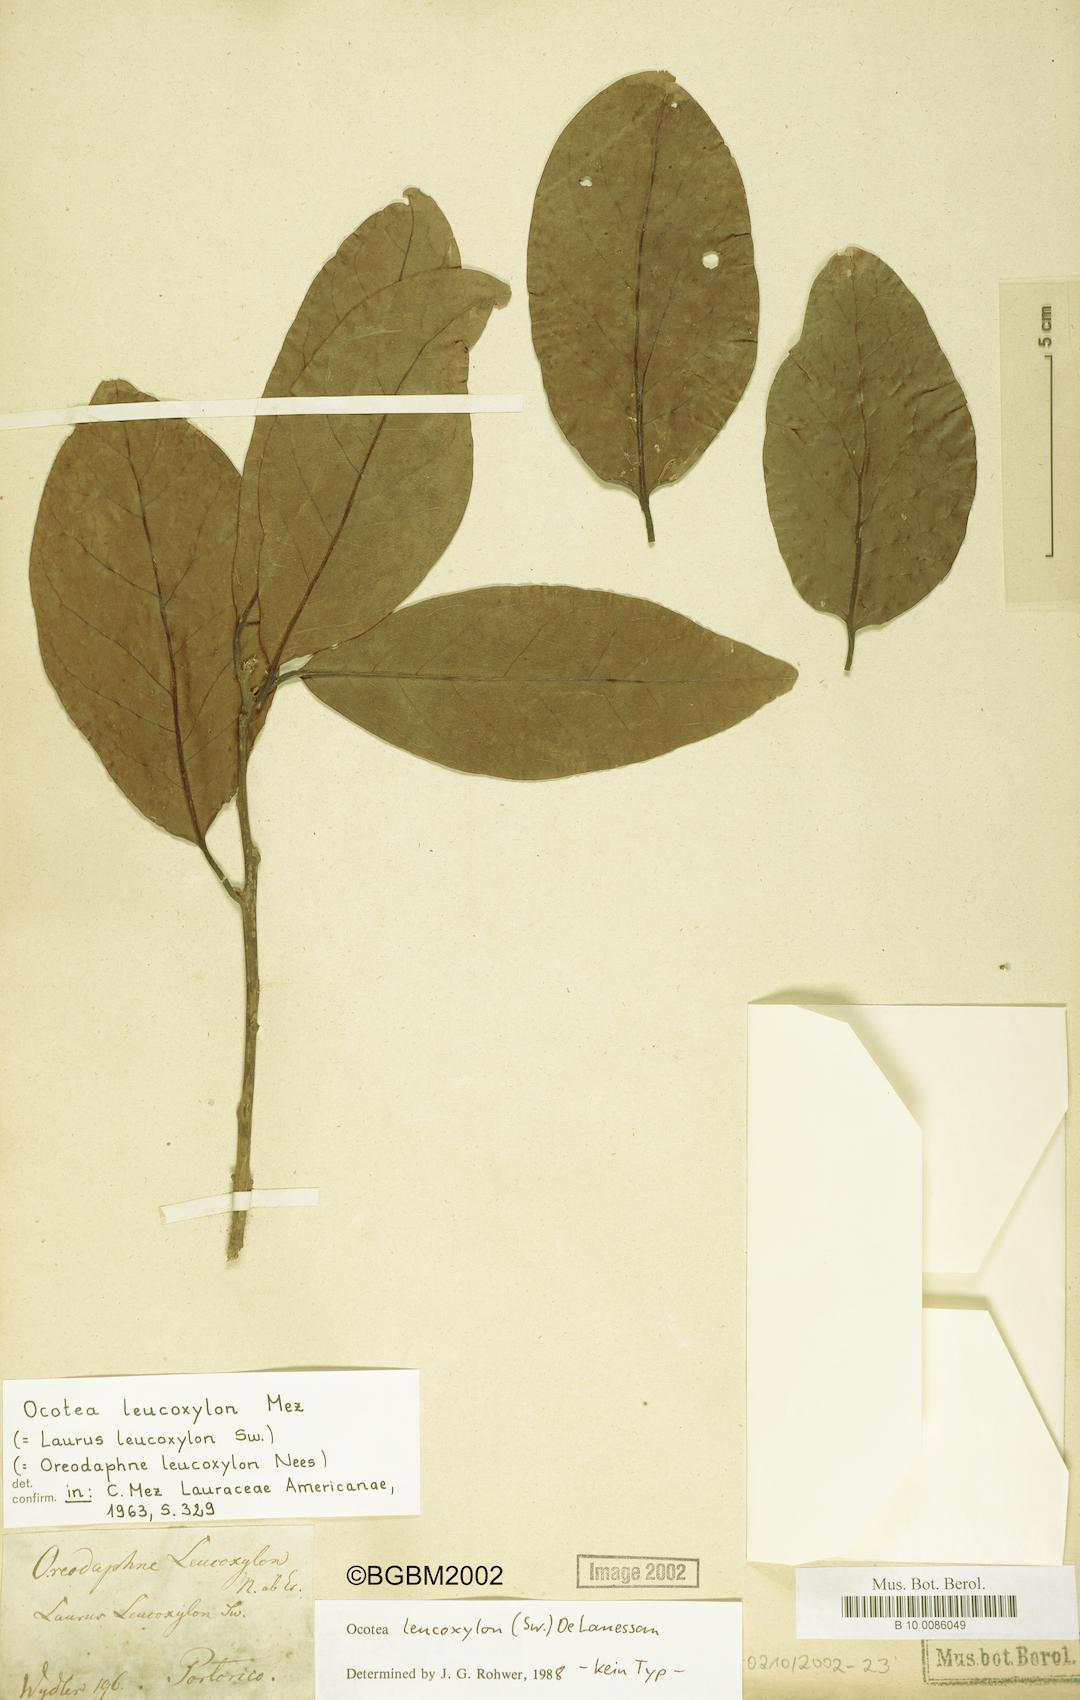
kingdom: Plantae
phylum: Tracheophyta
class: Magnoliopsida
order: Laurales
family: Lauraceae
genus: Ocotea
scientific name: Ocotea leucoxylon
